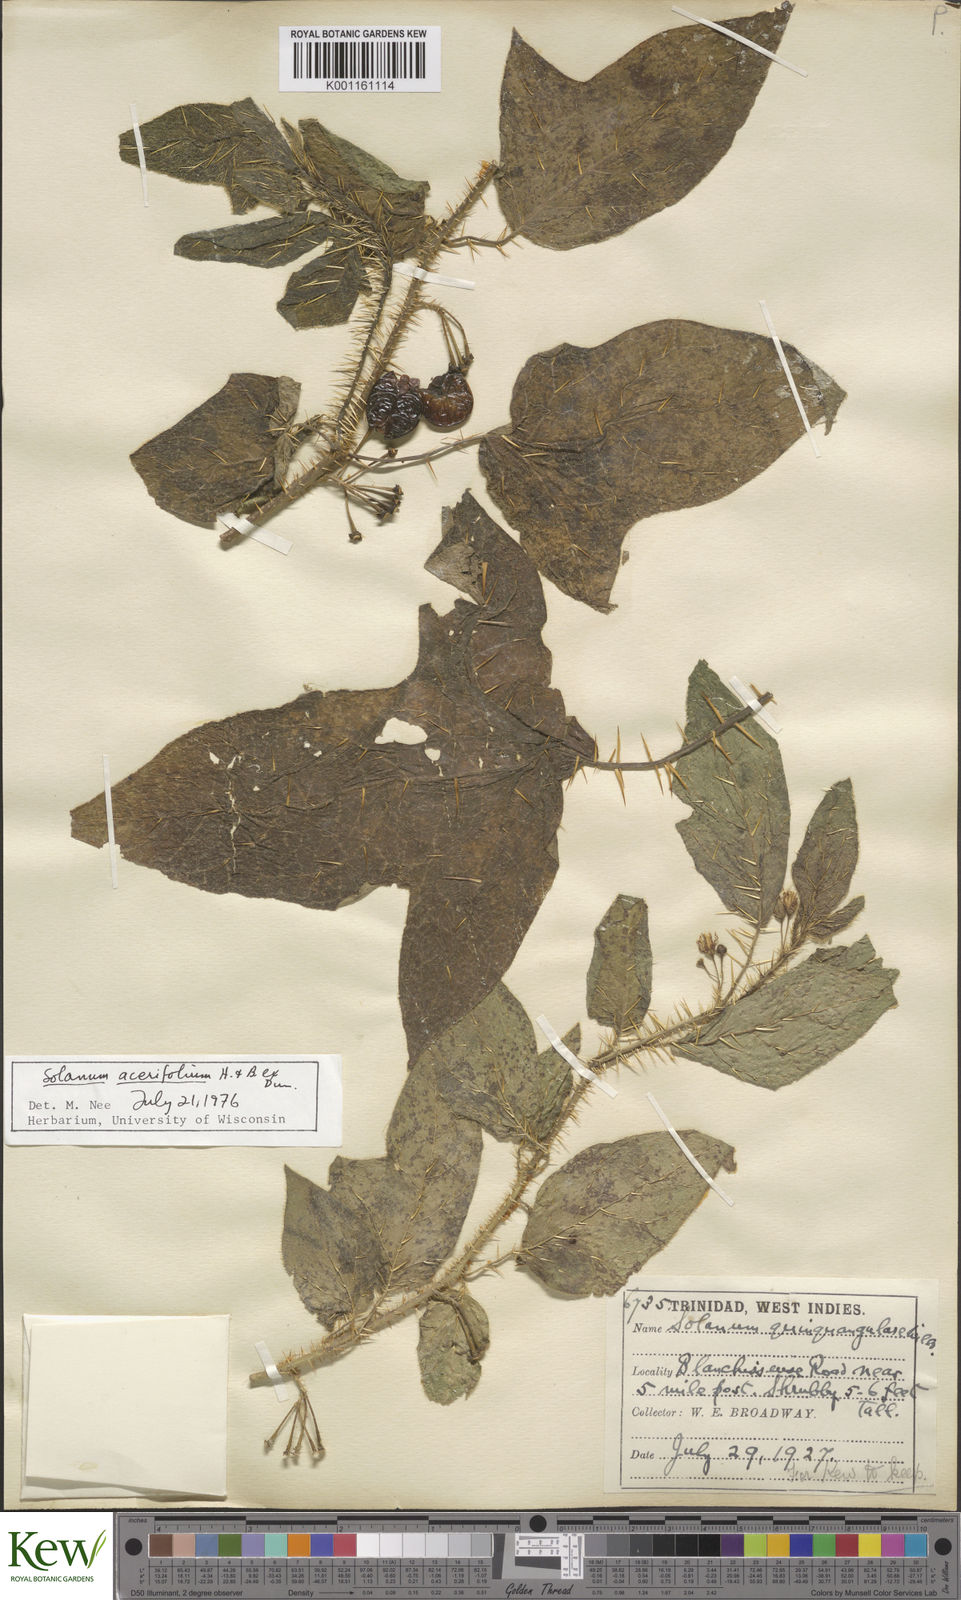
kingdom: Plantae
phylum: Tracheophyta
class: Magnoliopsida
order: Solanales
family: Solanaceae
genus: Solanum
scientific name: Solanum
